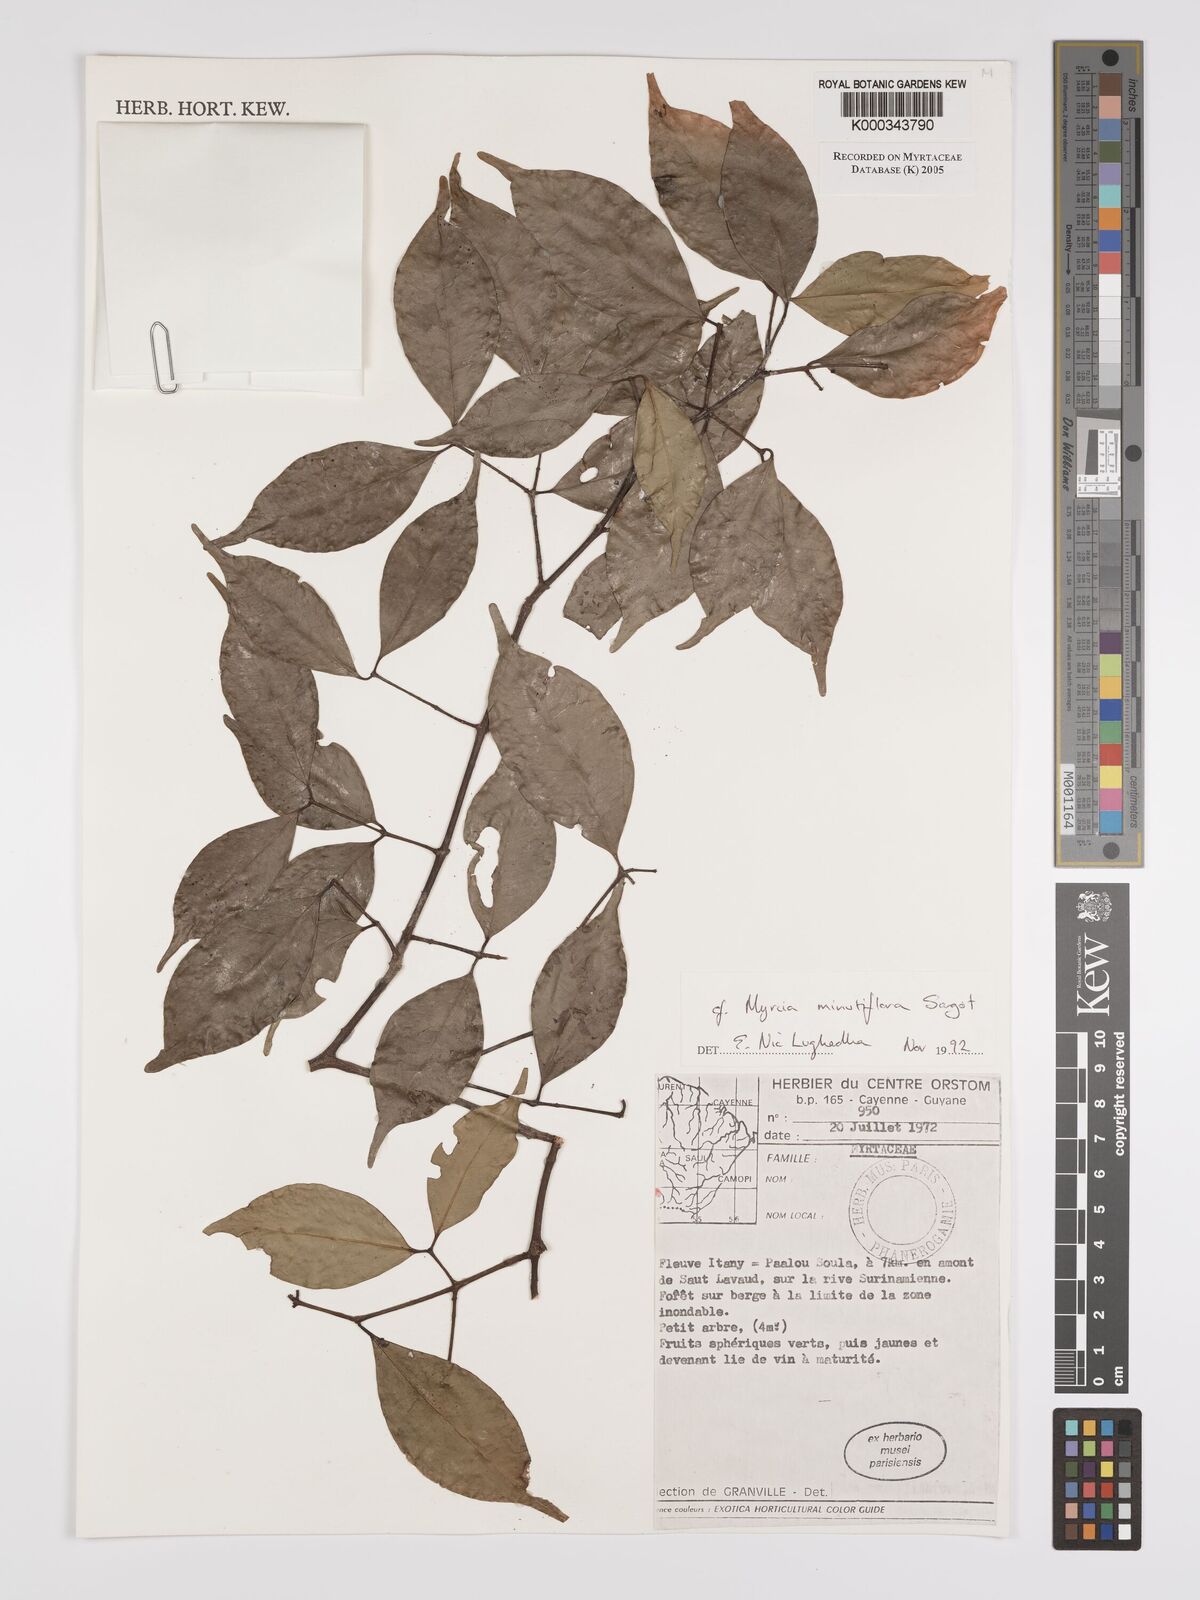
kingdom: Plantae
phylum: Tracheophyta
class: Magnoliopsida
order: Myrtales
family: Myrtaceae
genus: Myrcia
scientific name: Myrcia minutiflora
